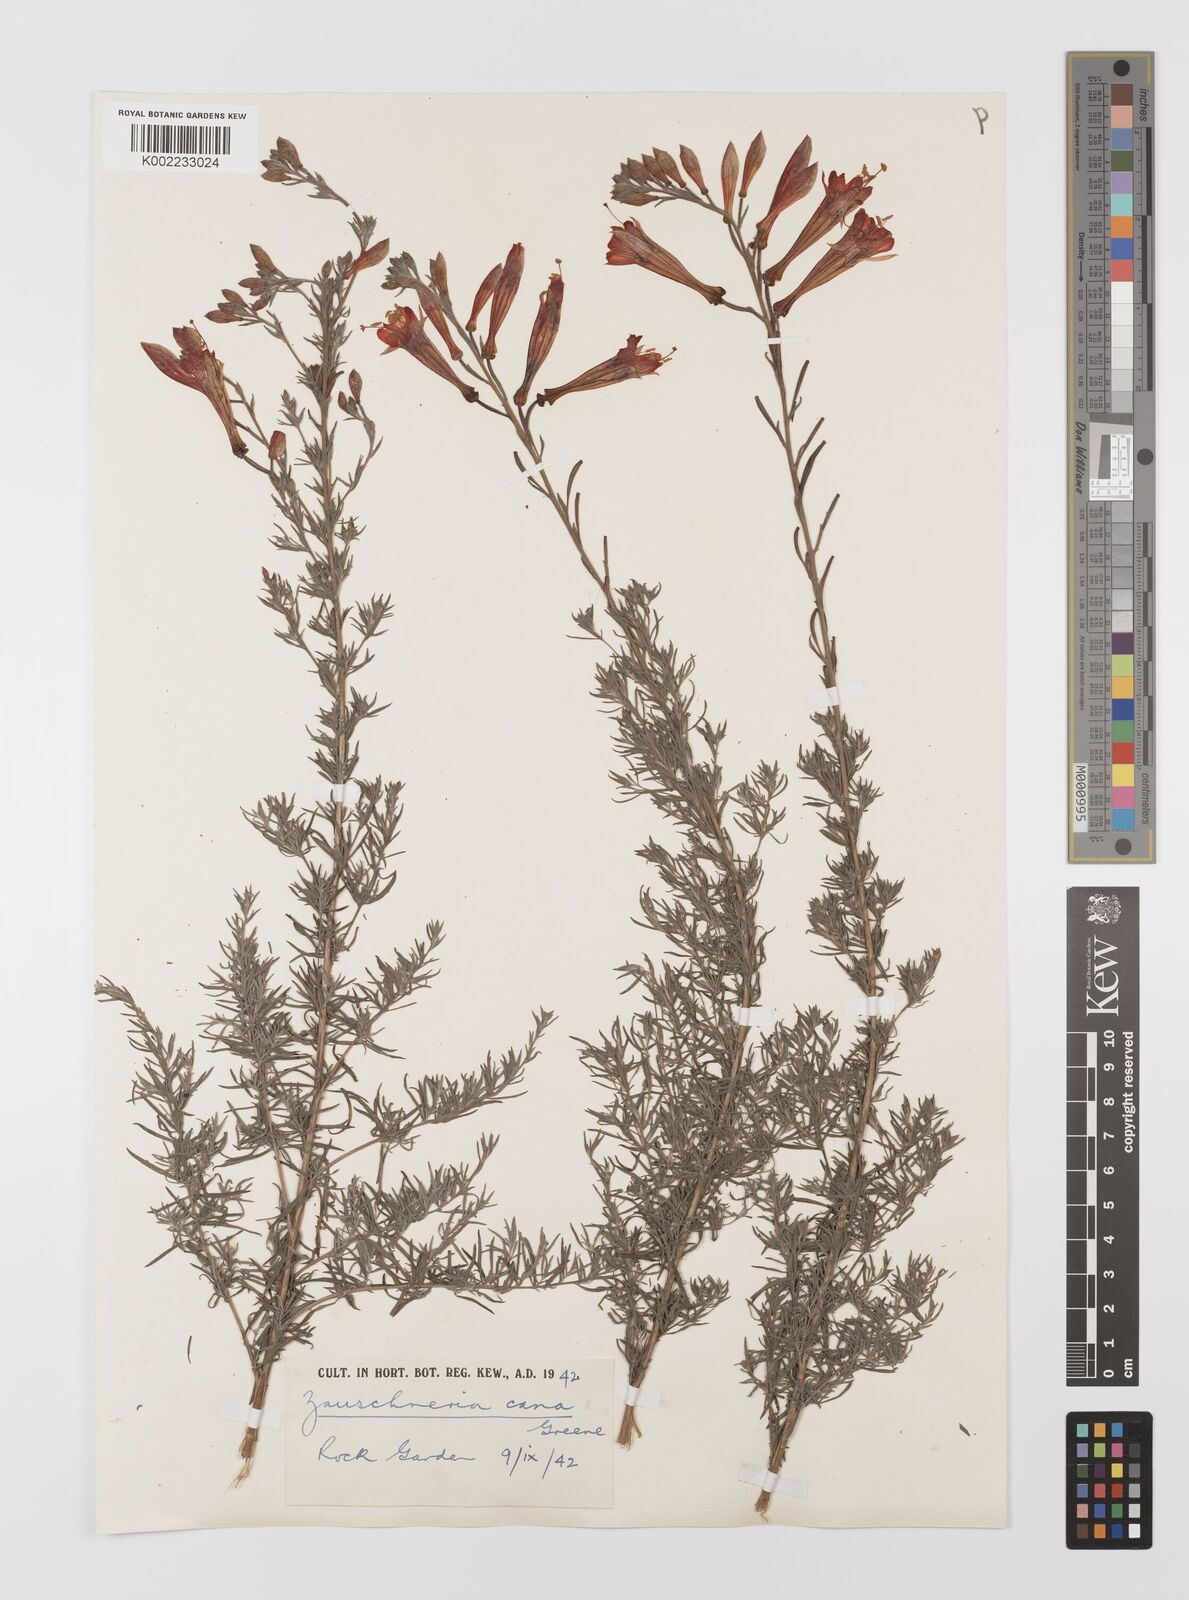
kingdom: Plantae
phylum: Tracheophyta
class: Magnoliopsida
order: Myrtales
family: Onagraceae
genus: Epilobium
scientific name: Epilobium canum
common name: California-fuchsia
